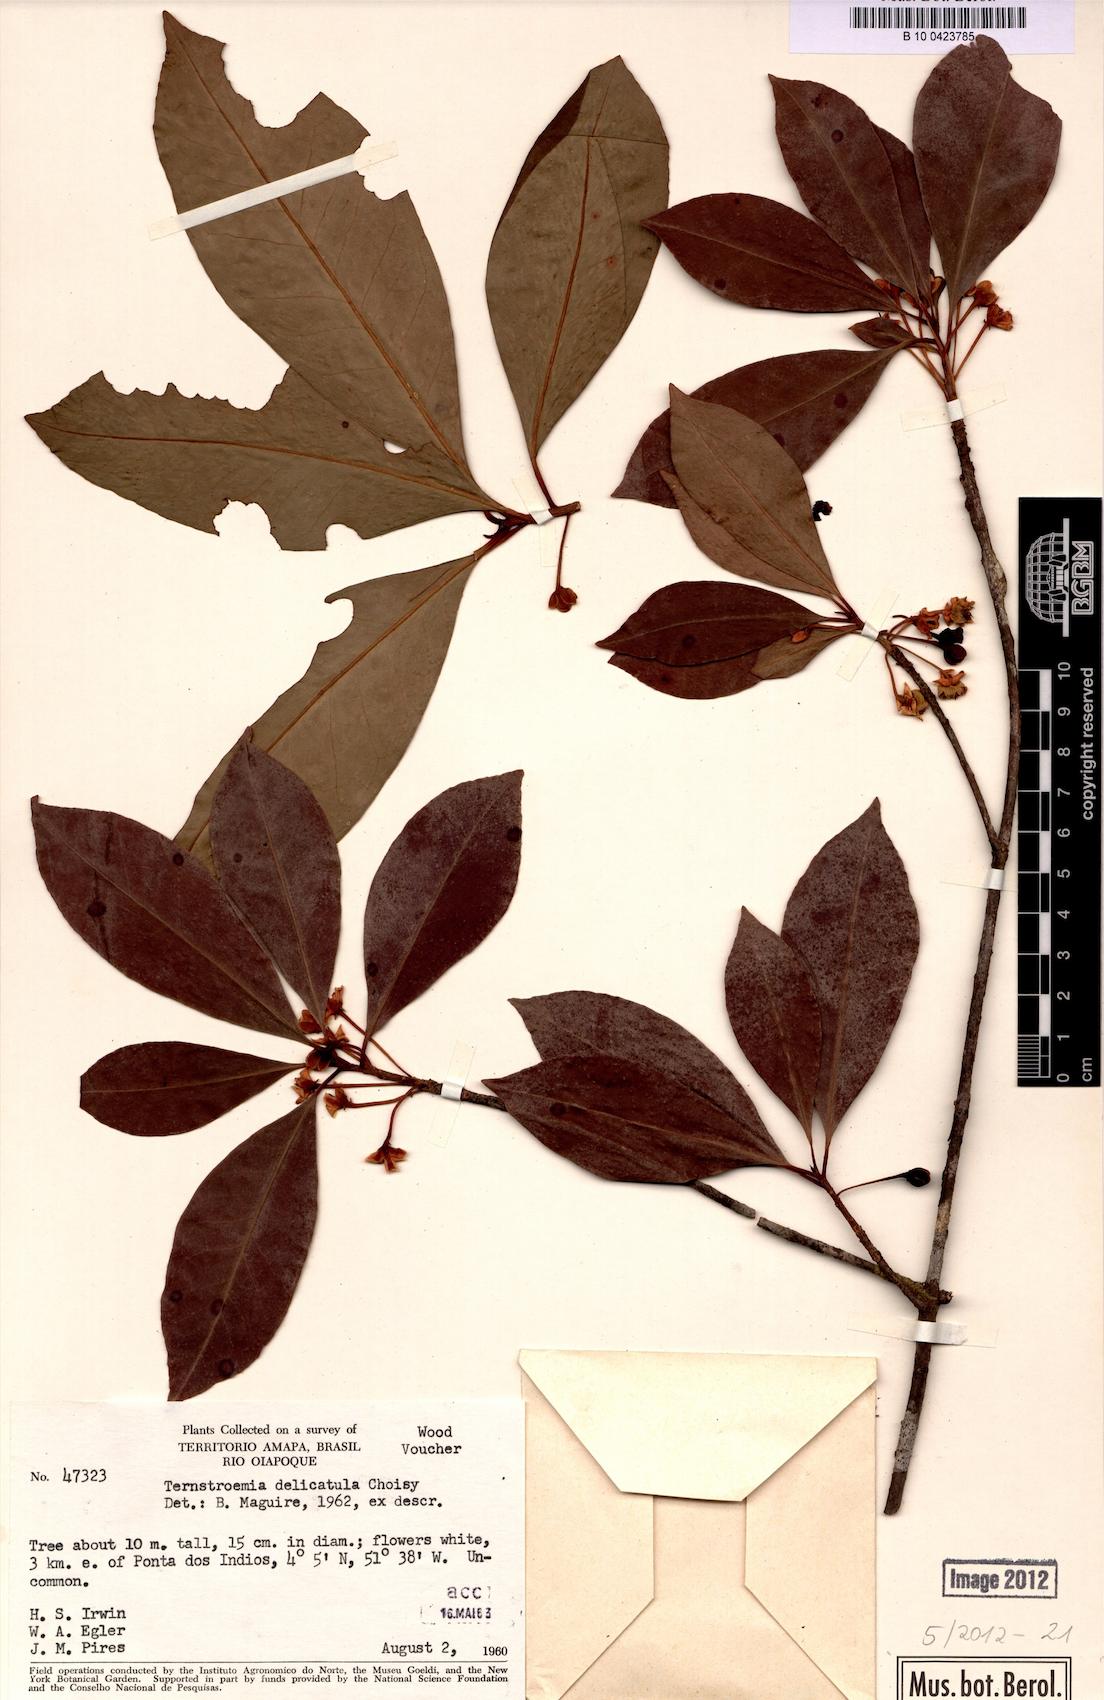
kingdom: Plantae
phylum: Tracheophyta
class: Magnoliopsida
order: Ericales
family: Pentaphylacaceae
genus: Ternstroemia
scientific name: Ternstroemia delicatula
